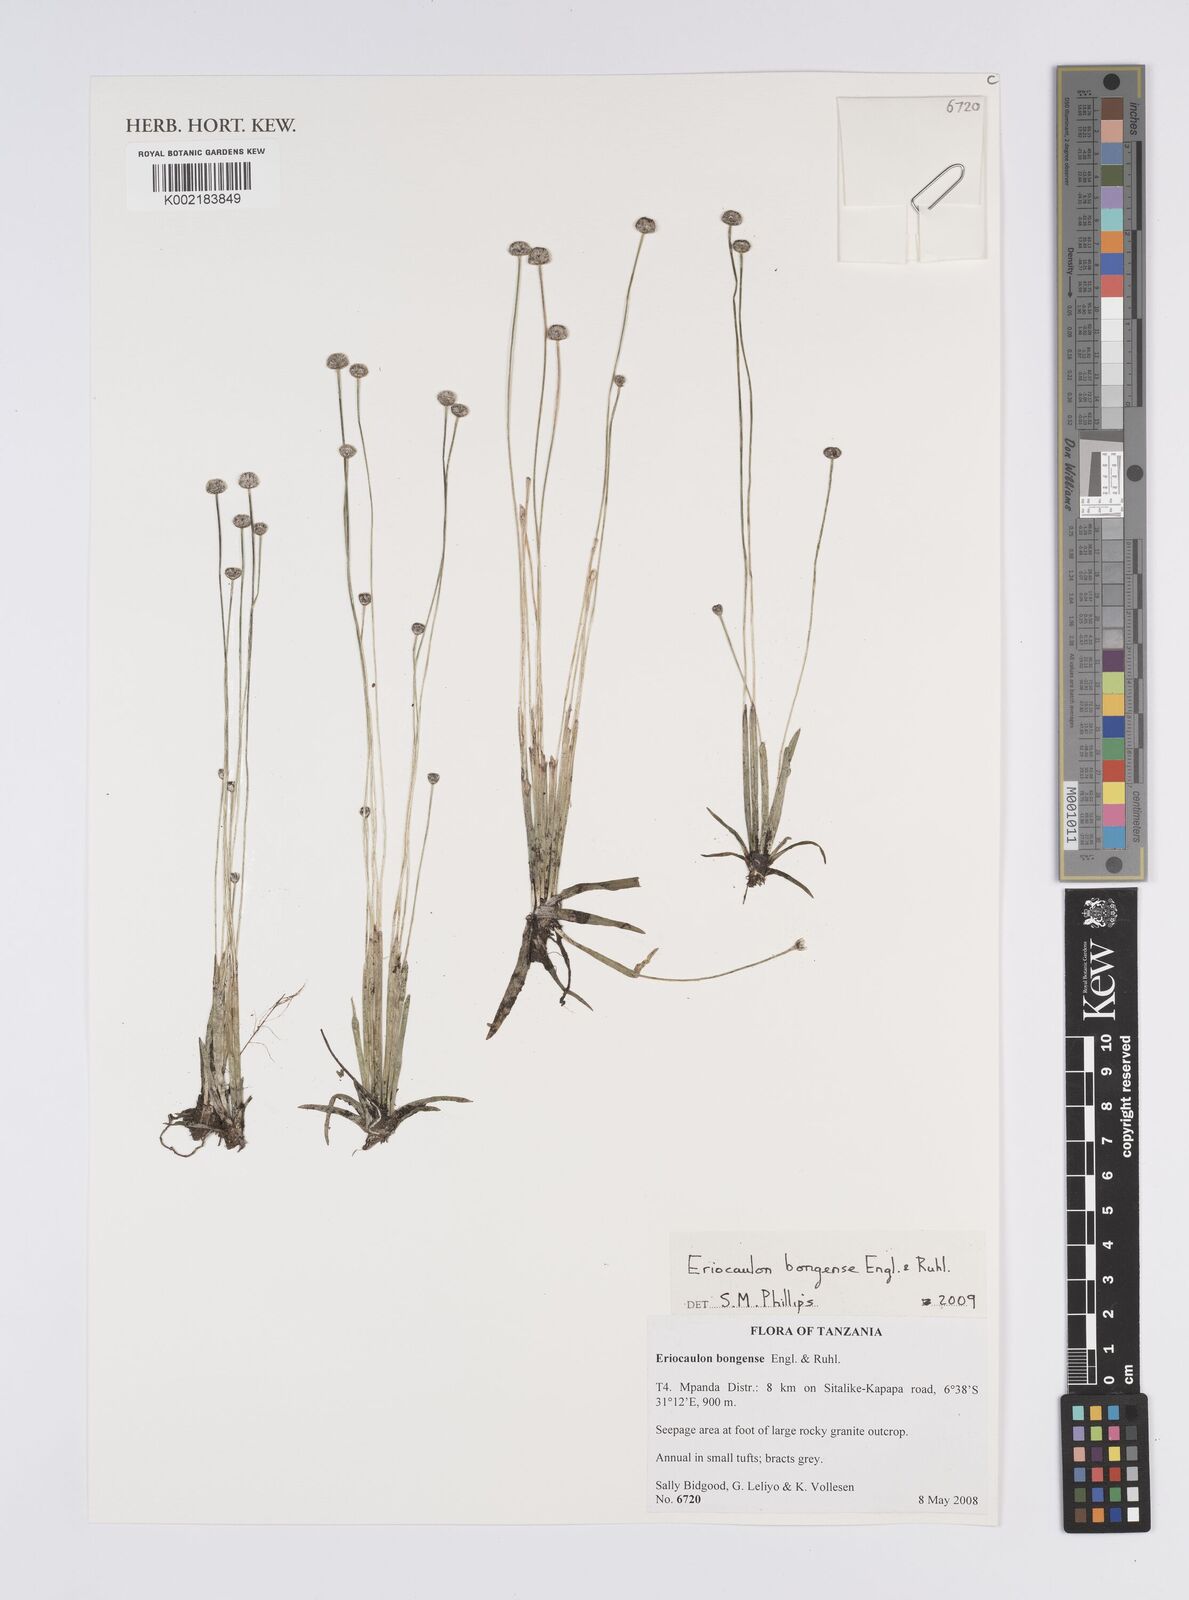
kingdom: Plantae
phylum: Tracheophyta
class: Liliopsida
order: Poales
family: Eriocaulaceae
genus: Eriocaulon
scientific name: Eriocaulon bongense
